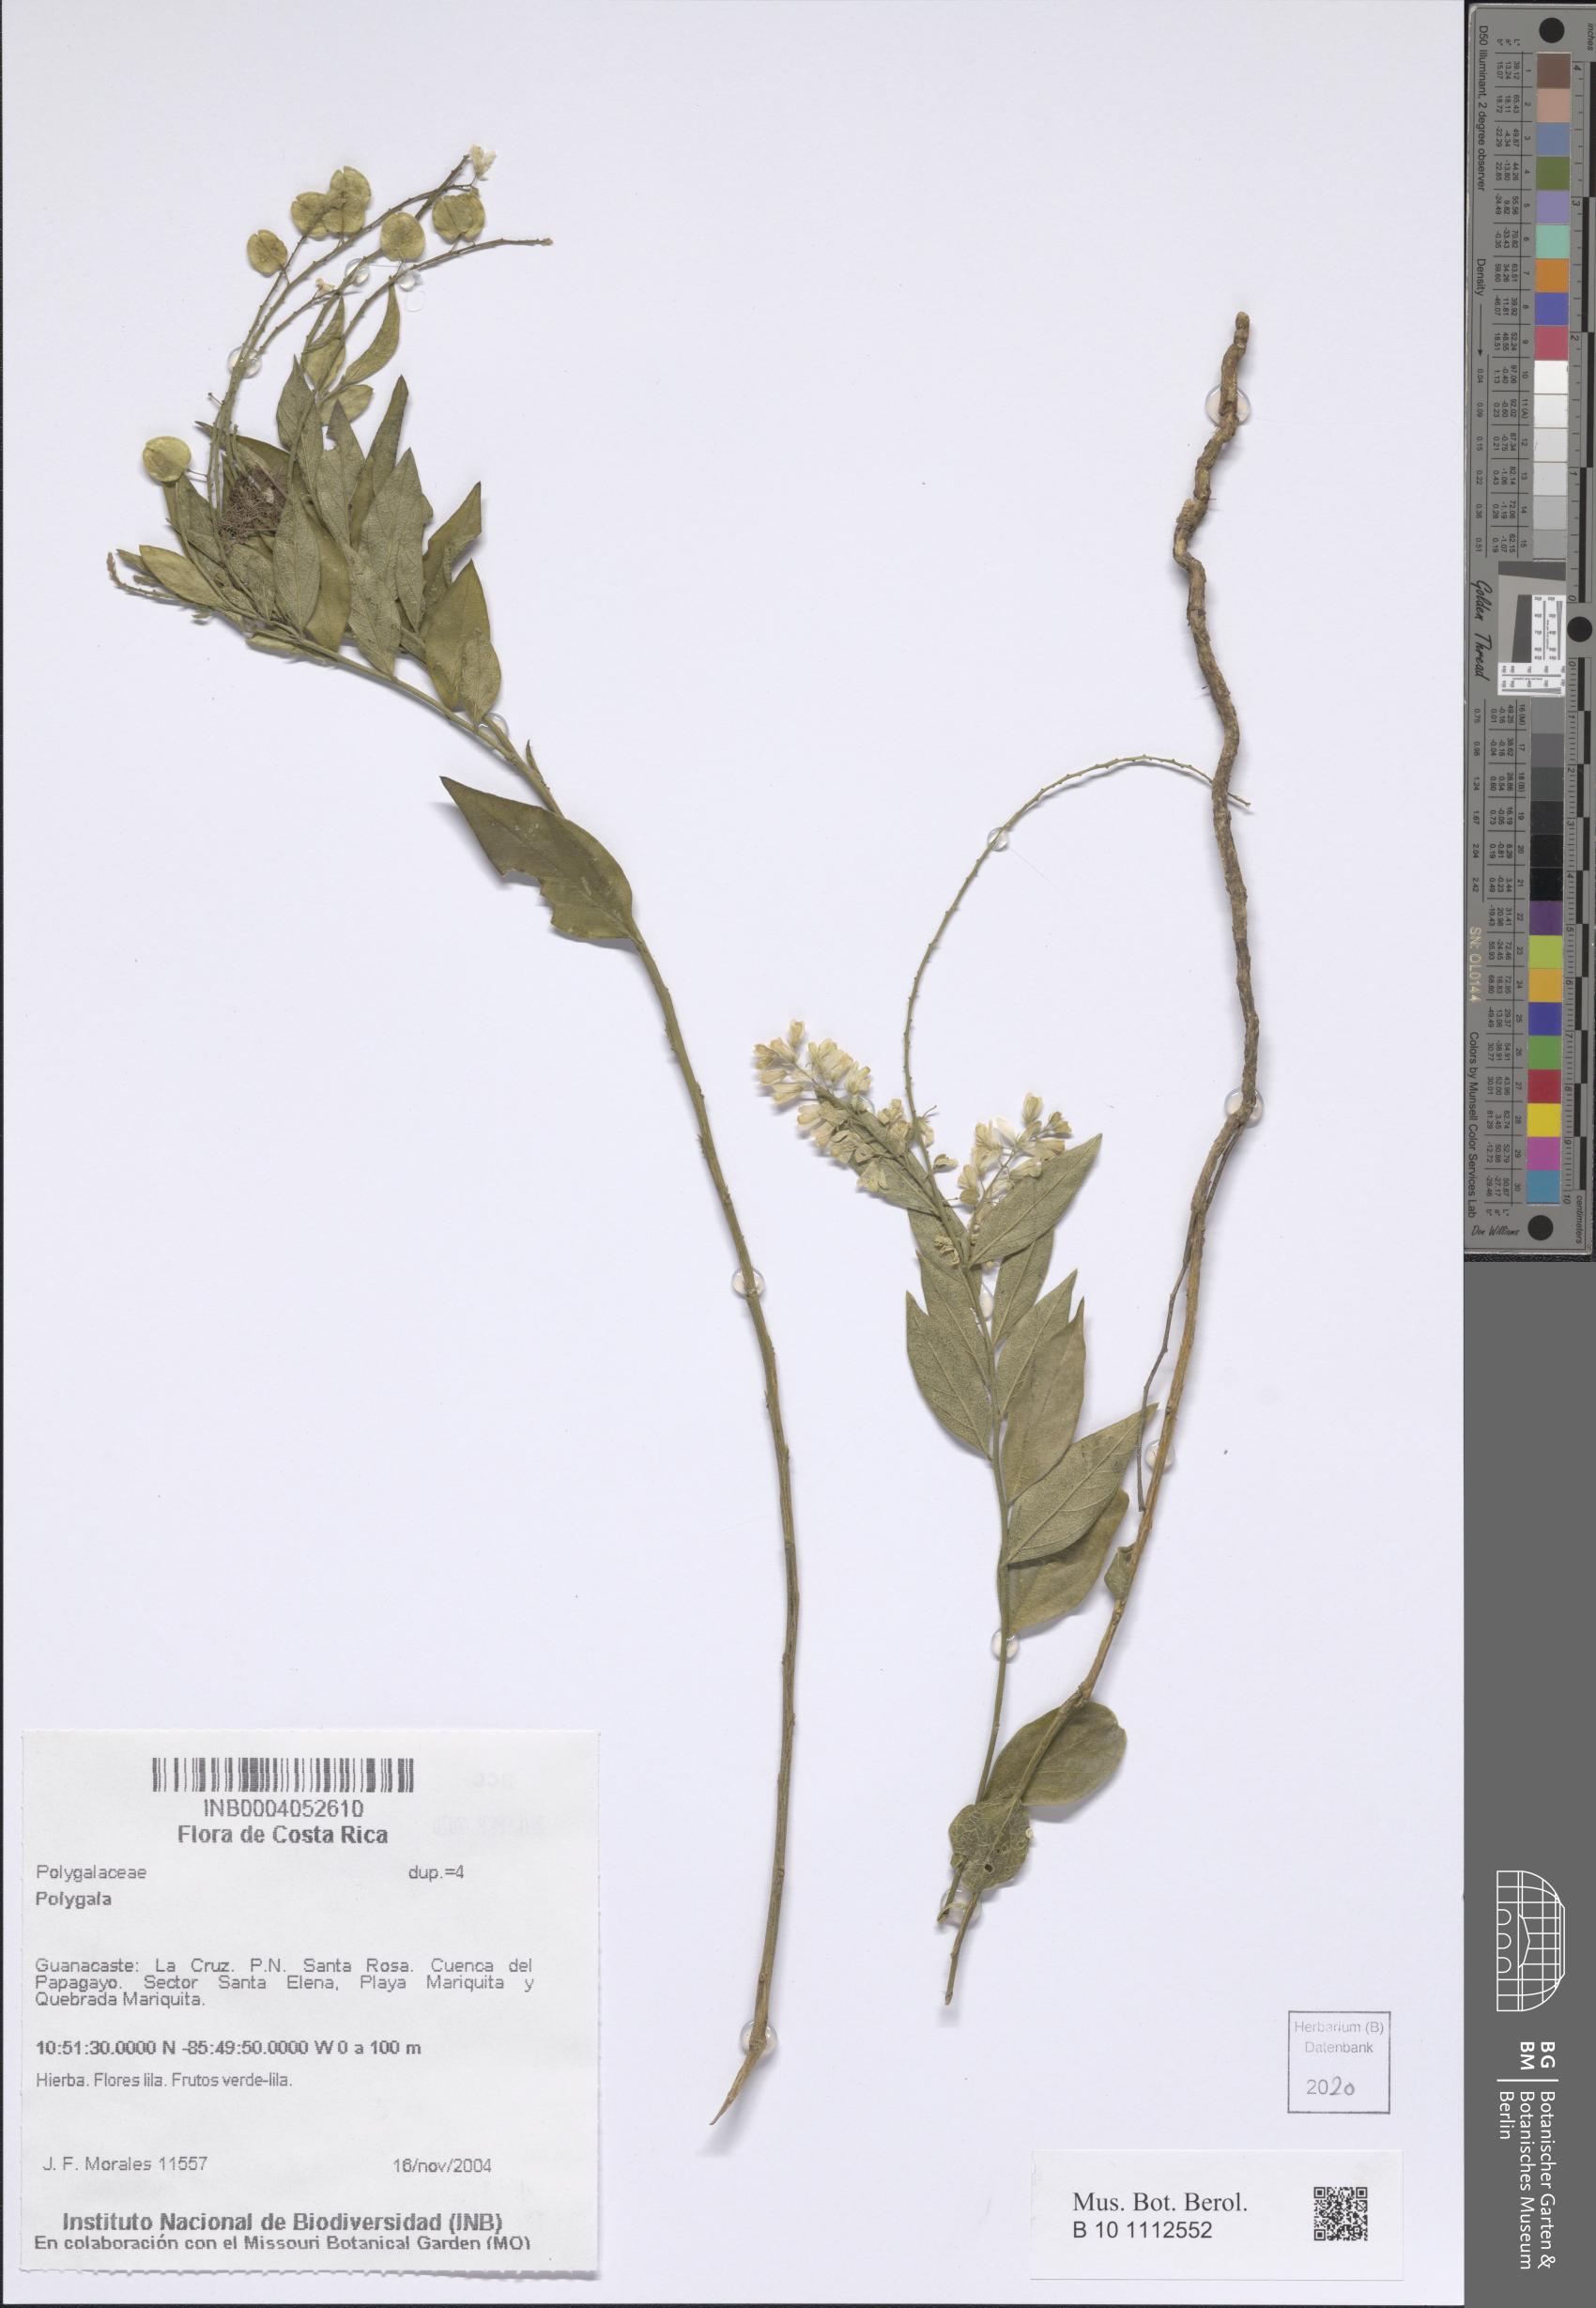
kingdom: Plantae
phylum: Tracheophyta
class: Magnoliopsida
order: Fabales
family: Polygalaceae
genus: Polygala
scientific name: Polygala
